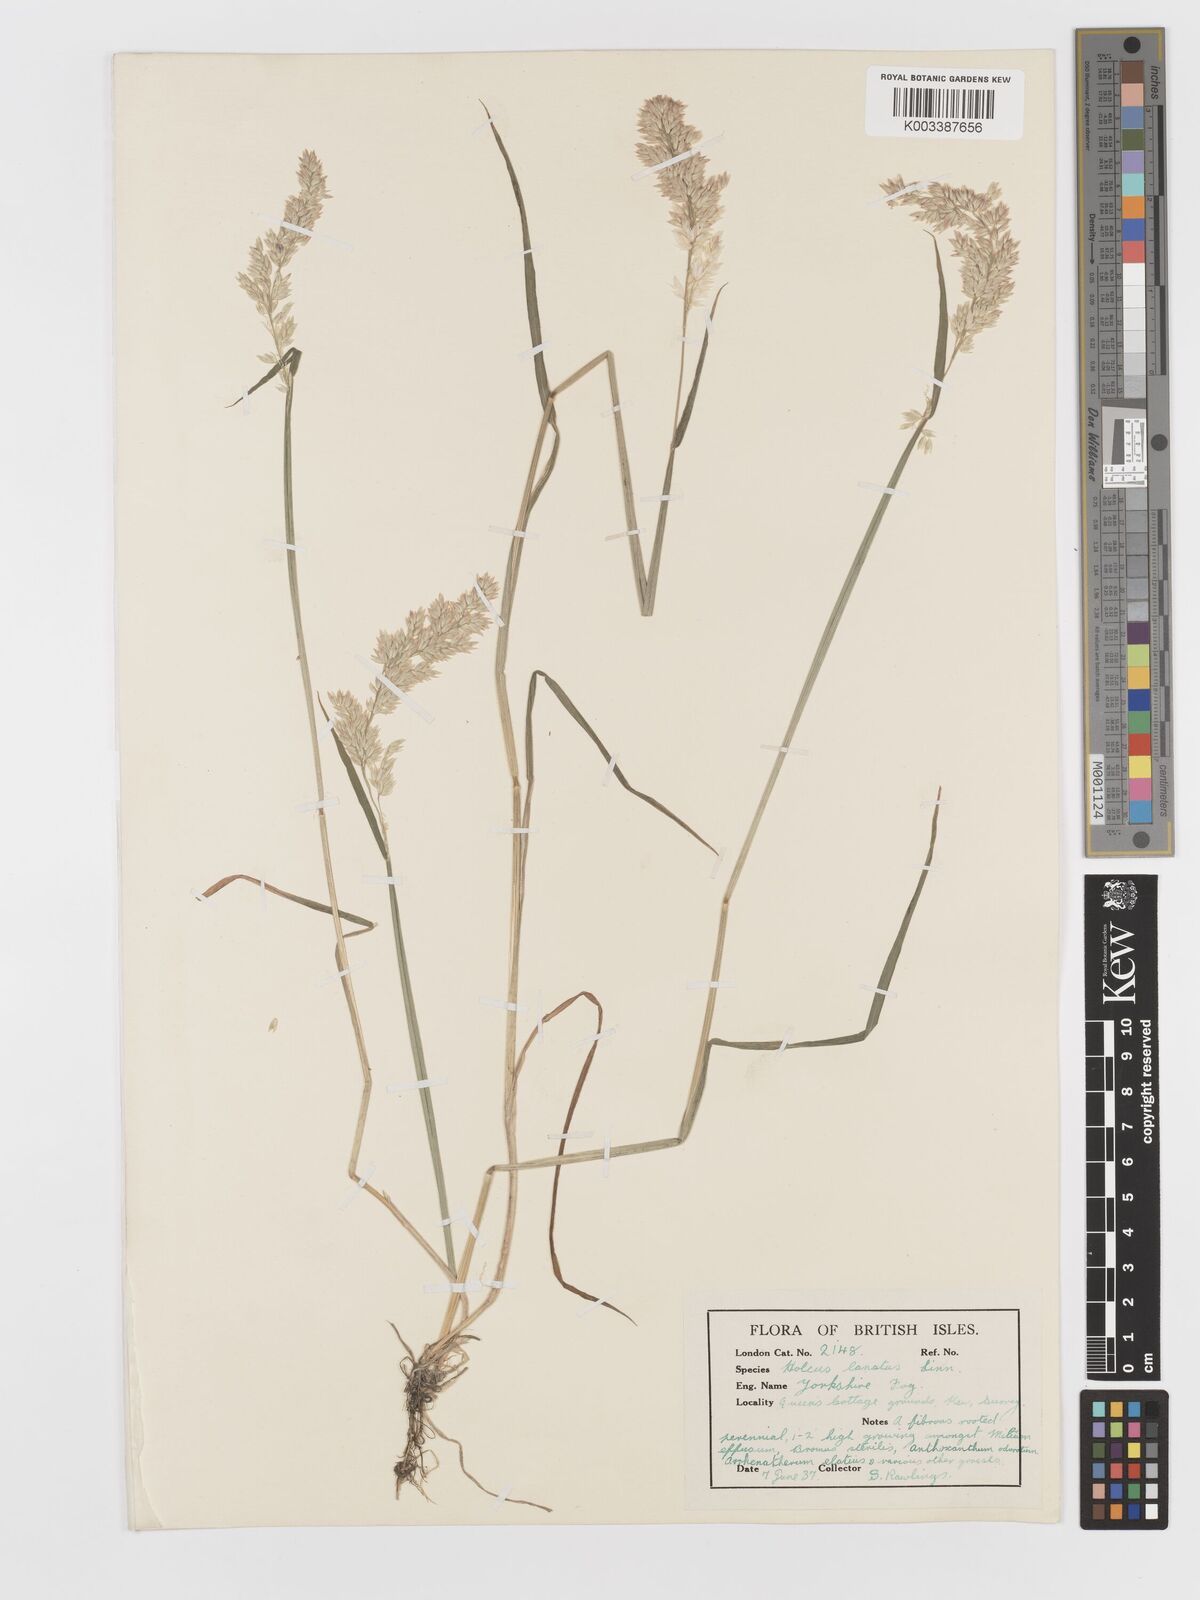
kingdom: Plantae
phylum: Tracheophyta
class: Liliopsida
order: Poales
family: Poaceae
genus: Holcus
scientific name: Holcus lanatus
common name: Yorkshire-fog
